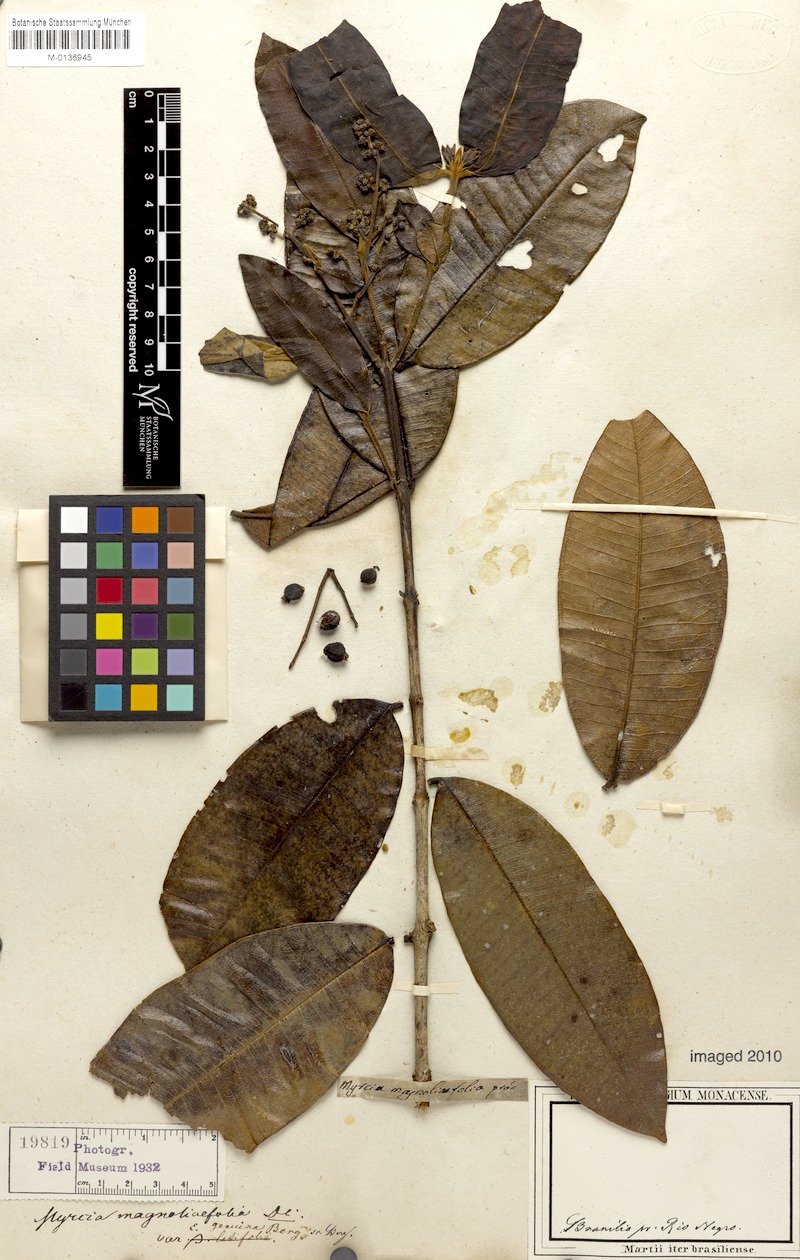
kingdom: Plantae
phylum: Tracheophyta
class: Magnoliopsida
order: Myrtales
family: Myrtaceae
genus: Myrcia
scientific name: Myrcia splendens
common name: Surinam cherry
